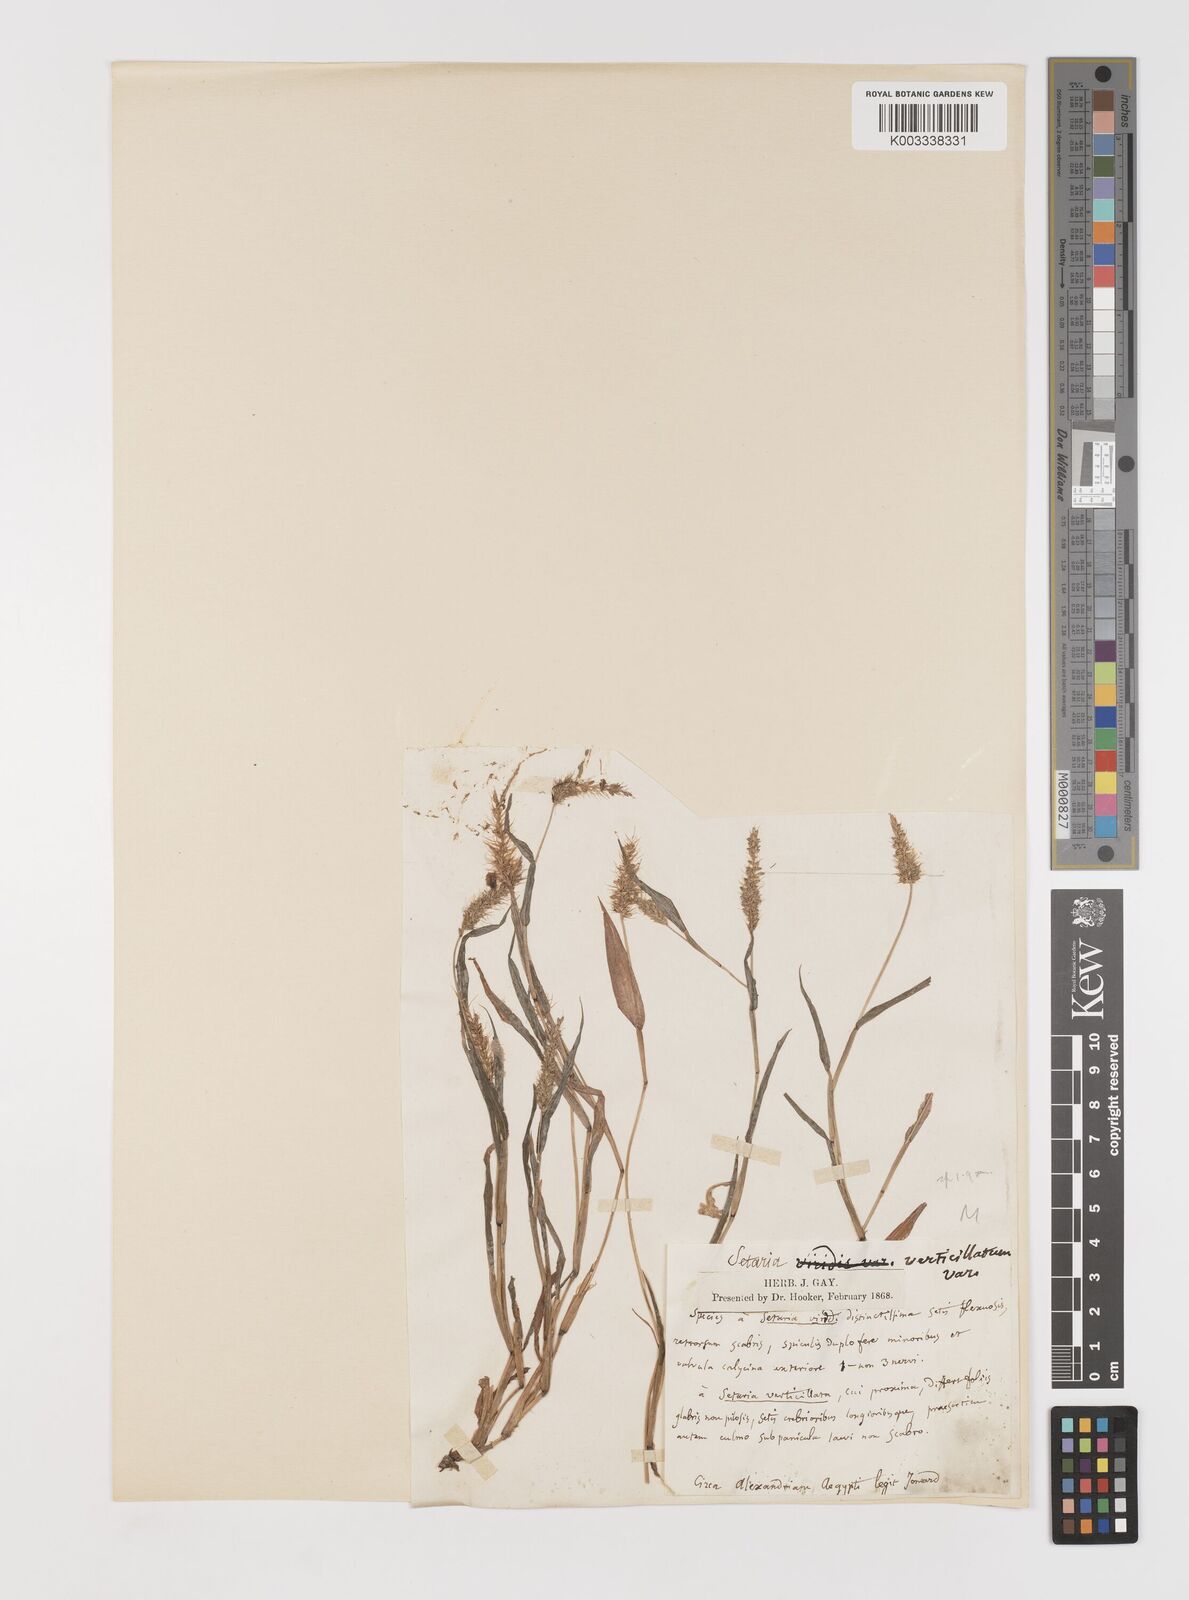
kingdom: Plantae
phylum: Tracheophyta
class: Liliopsida
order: Poales
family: Poaceae
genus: Setaria
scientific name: Setaria verticillata
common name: Hooked bristlegrass
